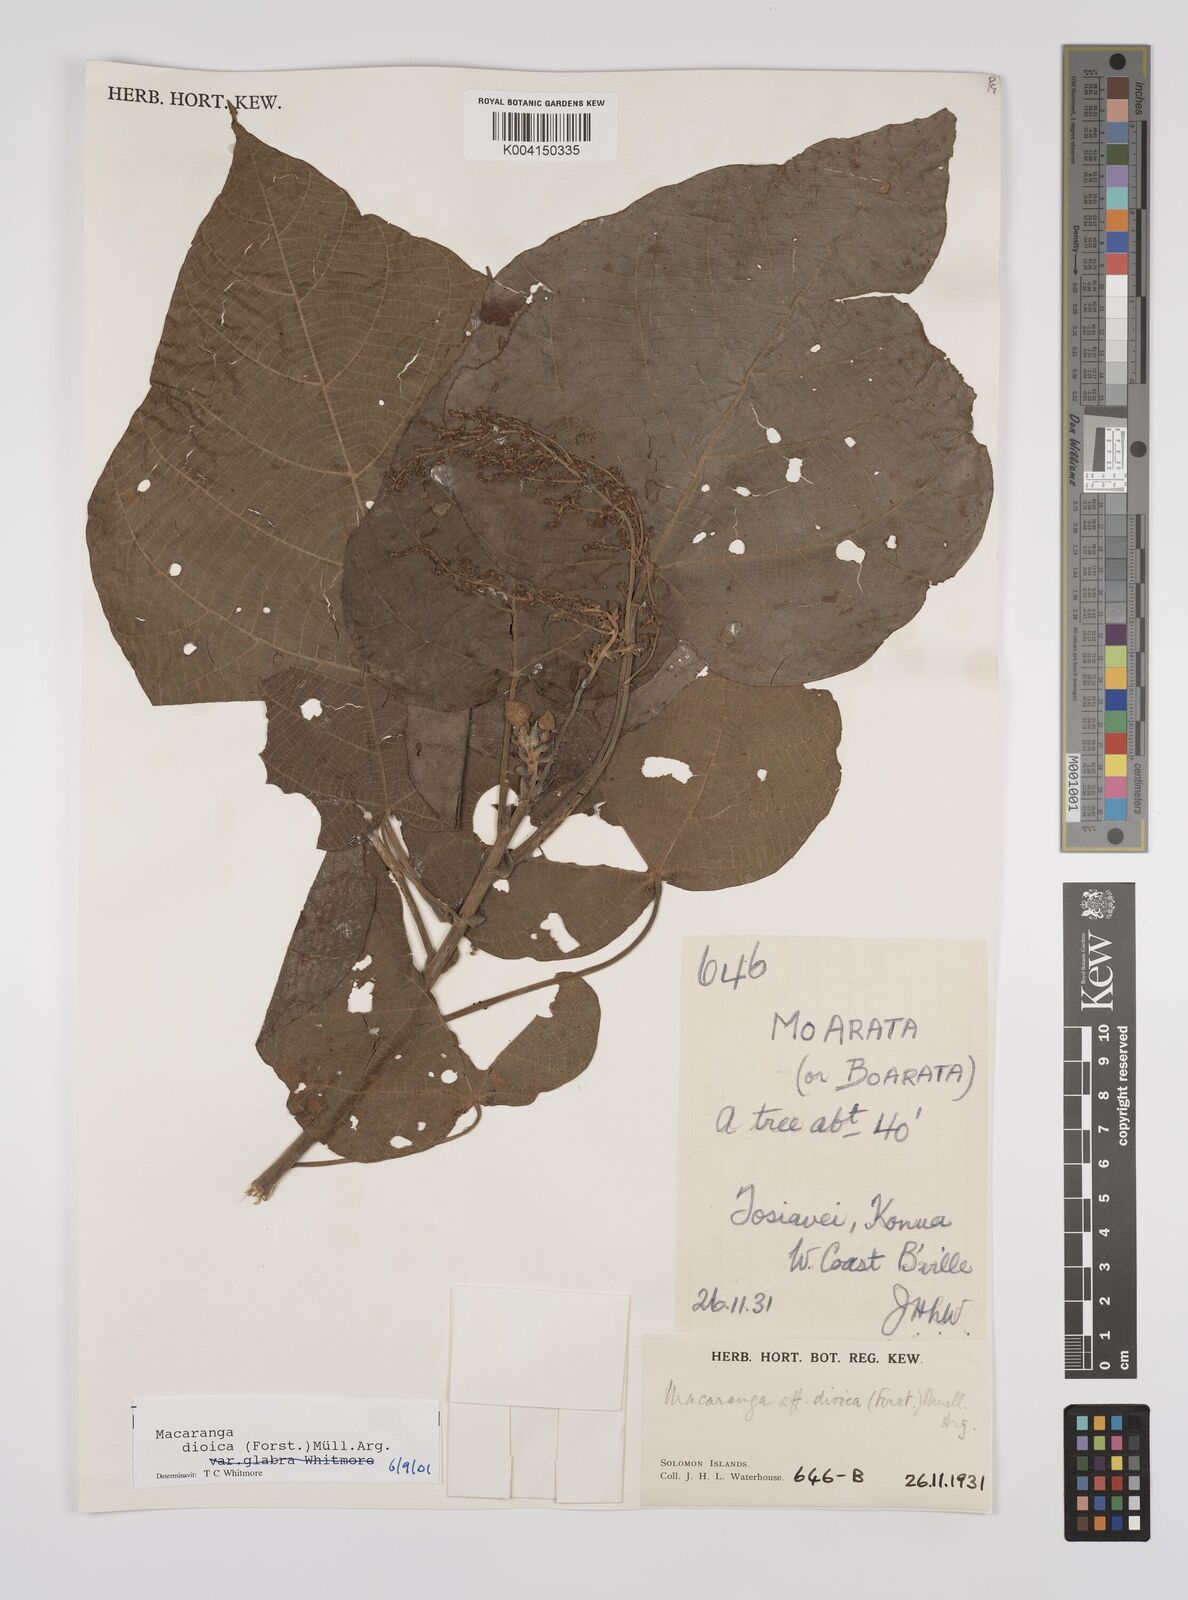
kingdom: Plantae
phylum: Tracheophyta
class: Magnoliopsida
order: Malpighiales
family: Euphorbiaceae
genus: Macaranga
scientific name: Macaranga dioica
